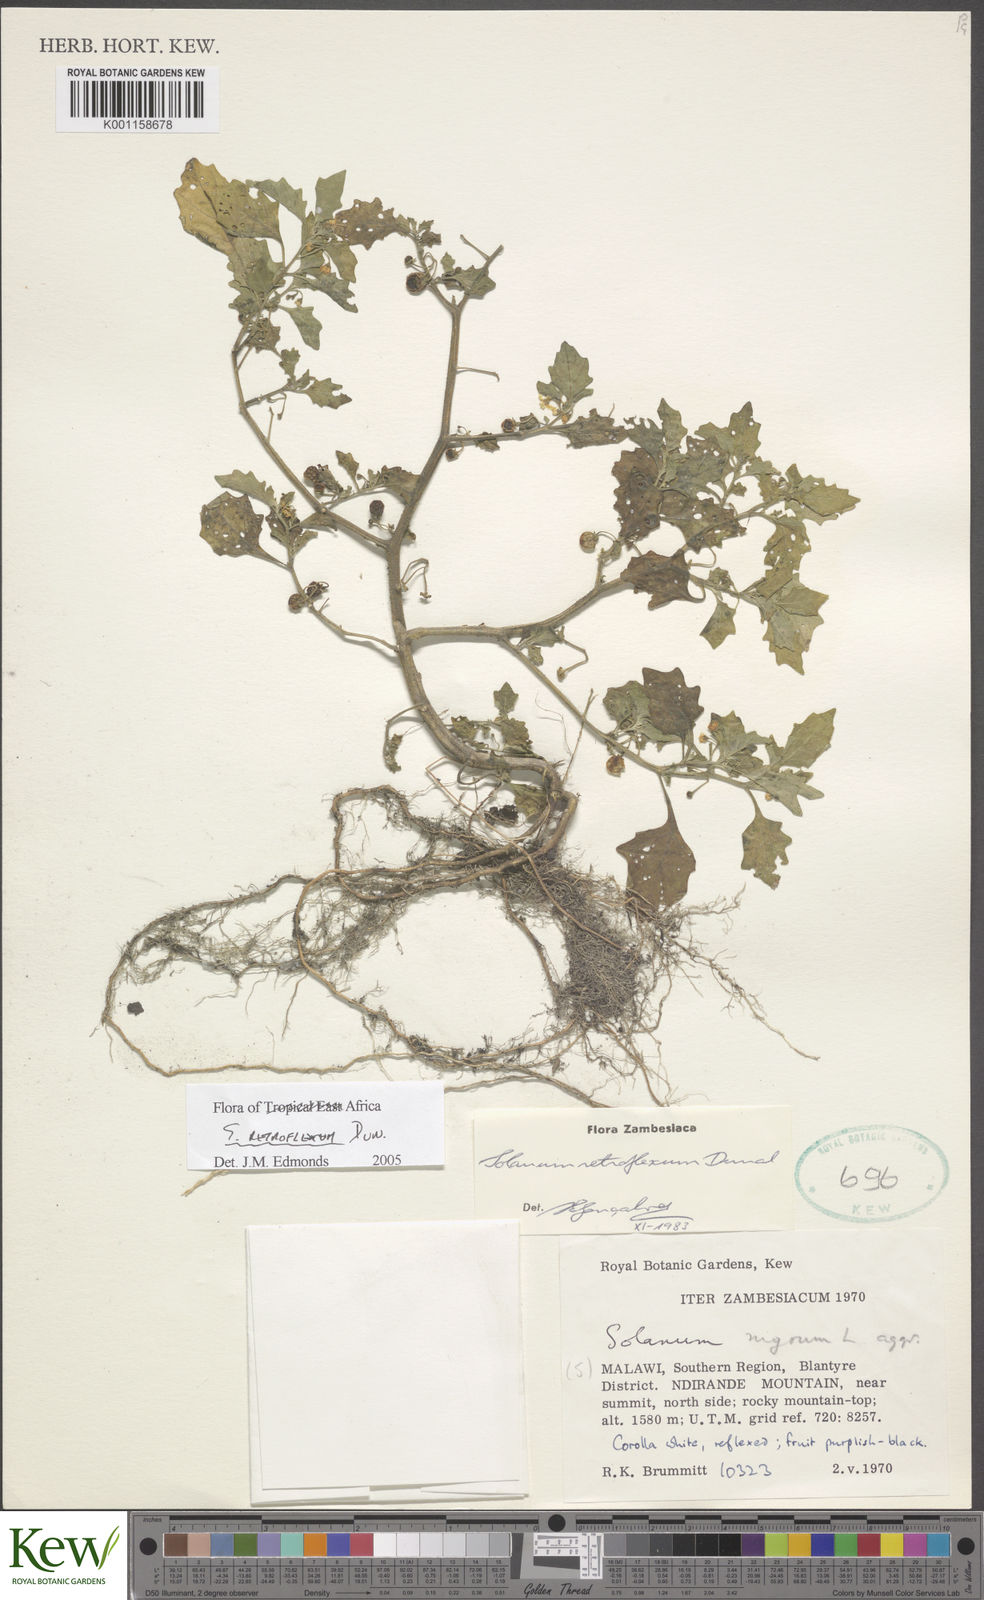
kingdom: Plantae
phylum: Tracheophyta
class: Magnoliopsida
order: Solanales
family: Solanaceae
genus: Solanum
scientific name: Solanum retroflexum
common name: Wonderberry
